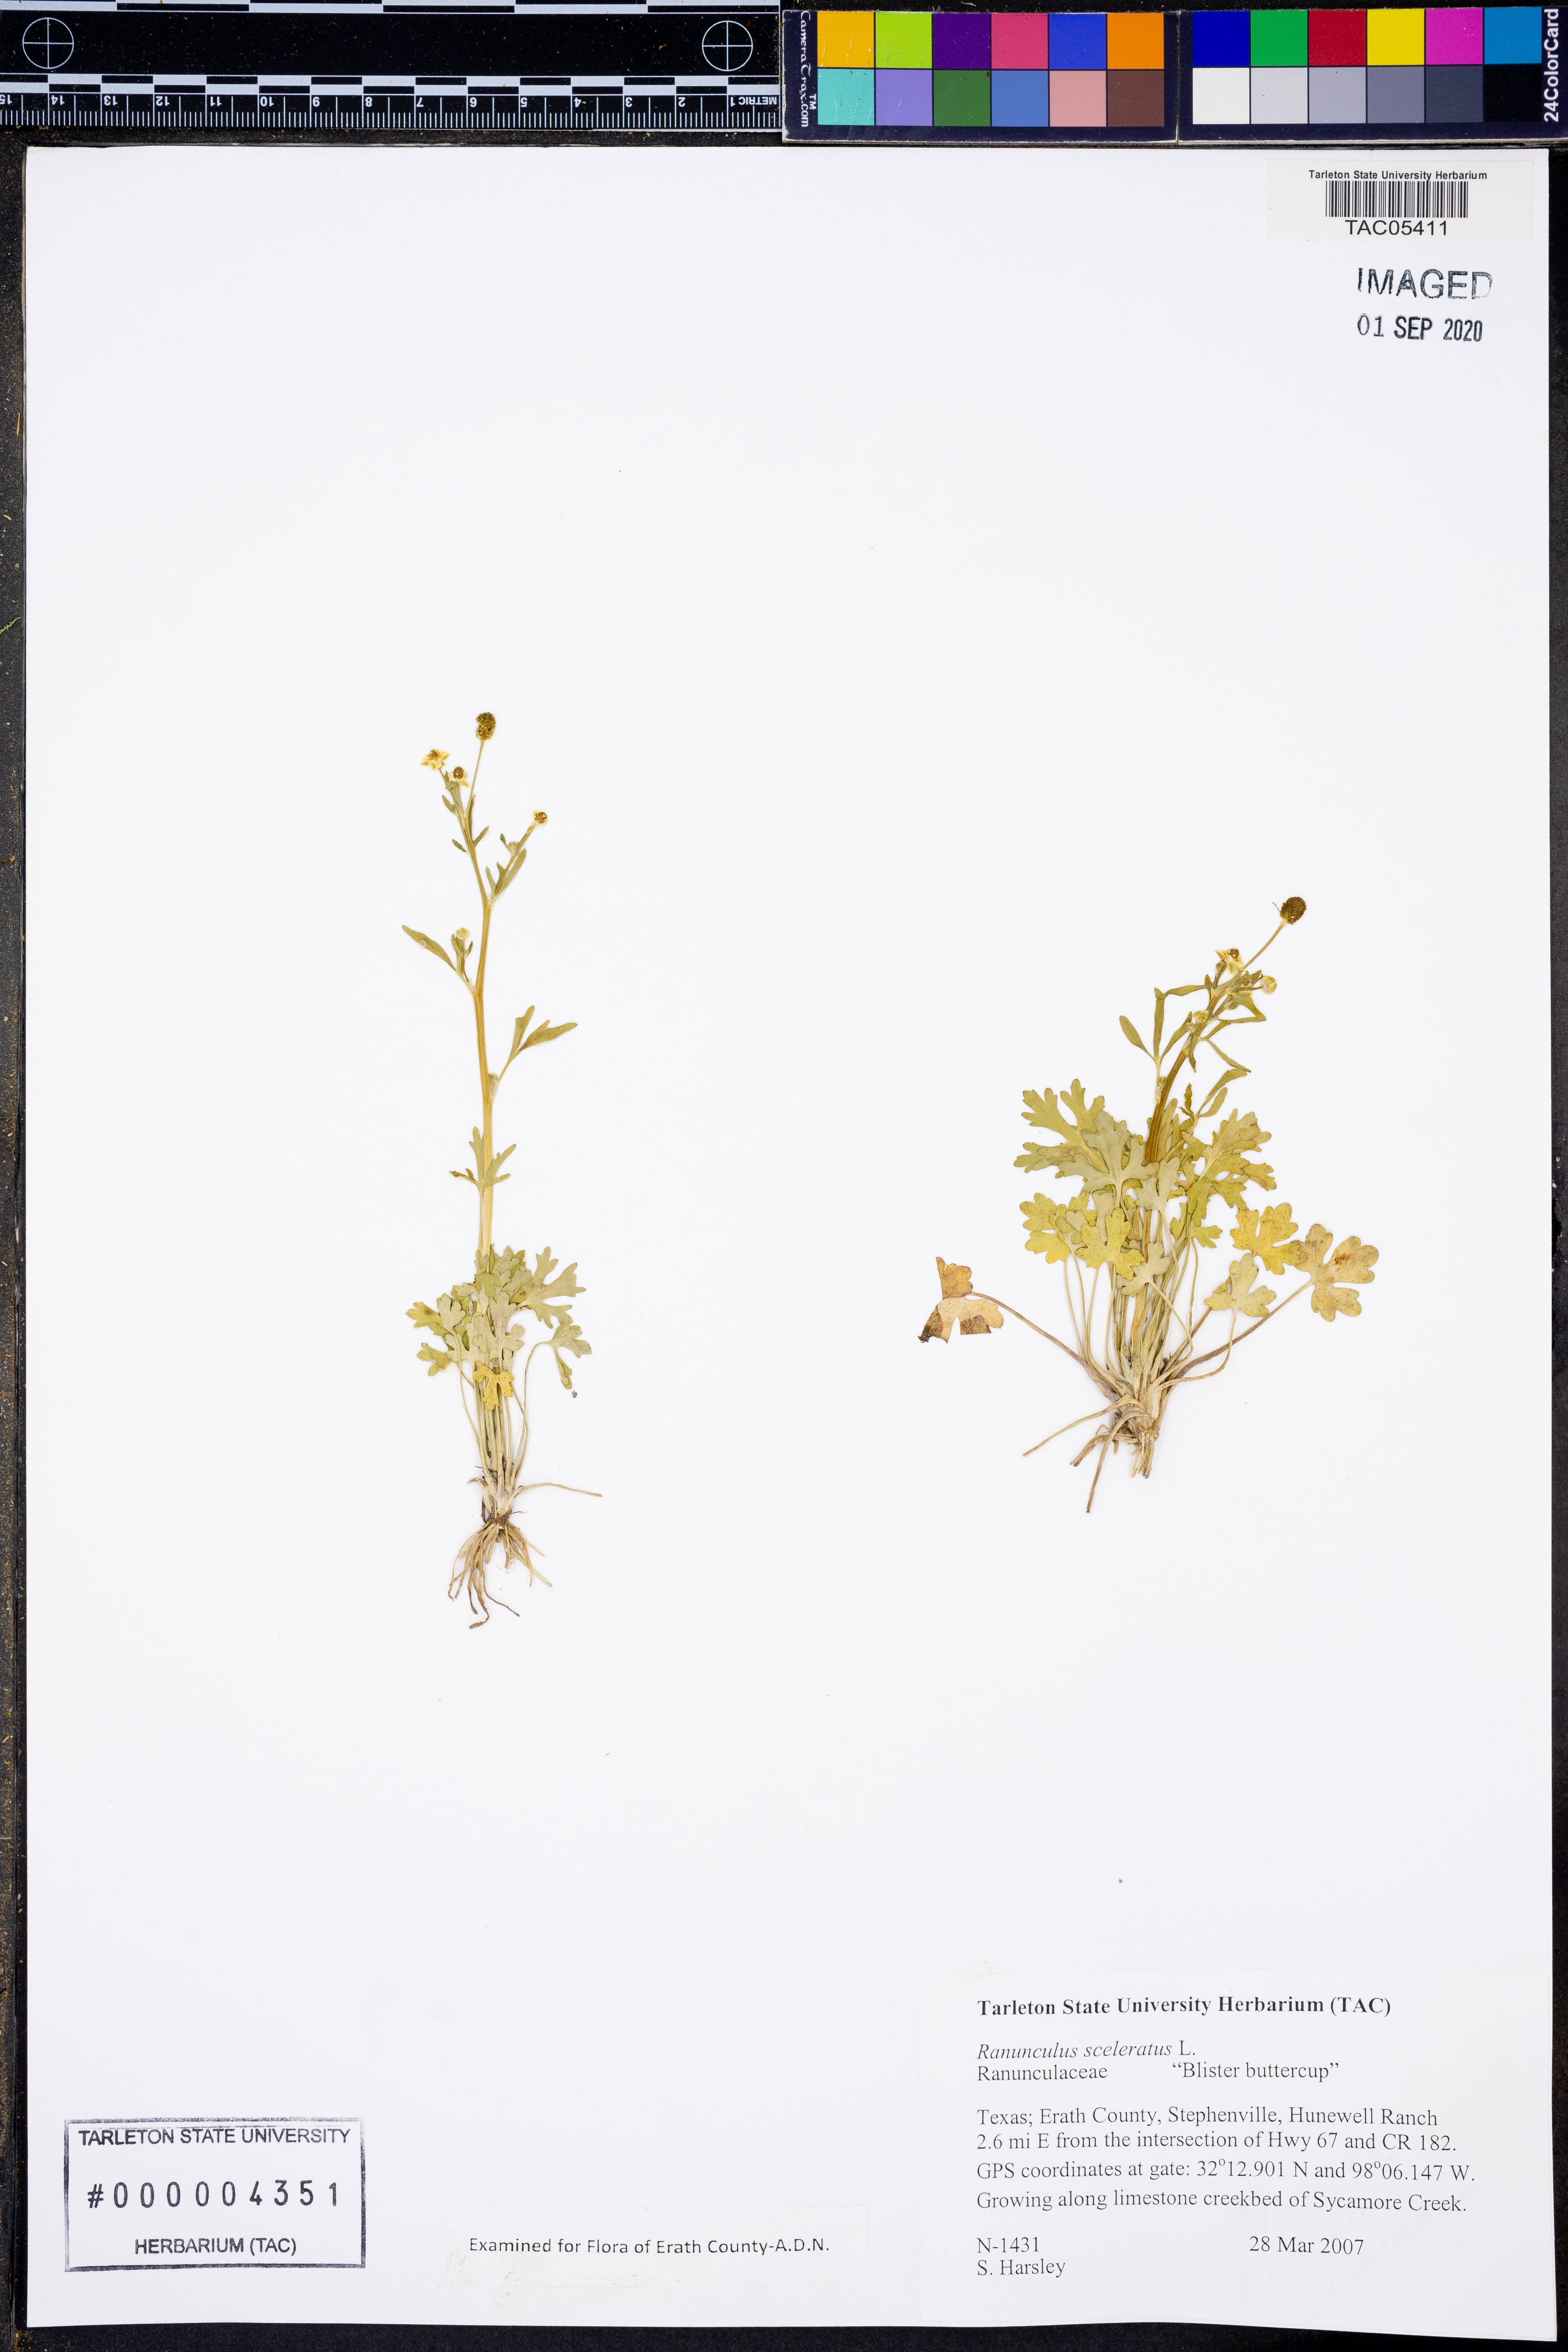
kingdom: Plantae
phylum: Tracheophyta
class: Magnoliopsida
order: Ranunculales
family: Ranunculaceae
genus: Ranunculus
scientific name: Ranunculus sceleratus
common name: Celery-leaved buttercup
